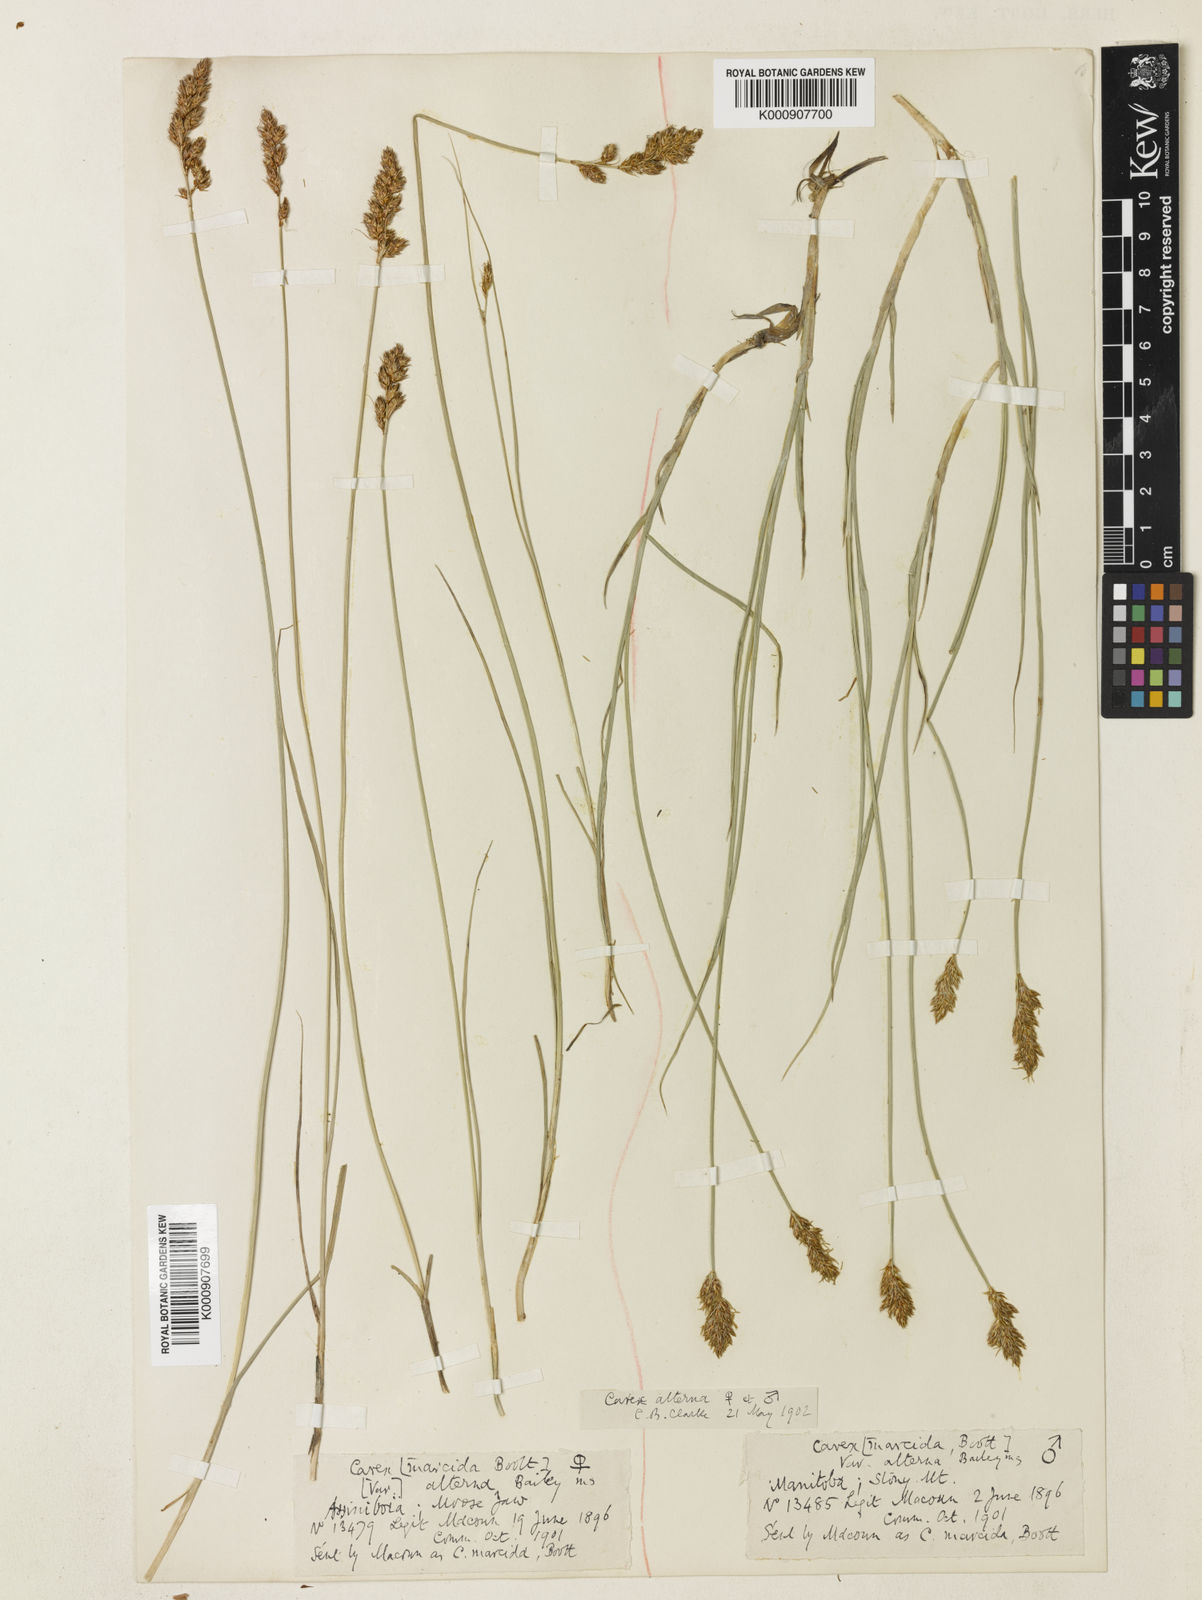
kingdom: Plantae
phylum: Tracheophyta
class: Liliopsida
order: Poales
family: Cyperaceae
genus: Carex
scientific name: Carex praegracilis
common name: Black creeper sedge
